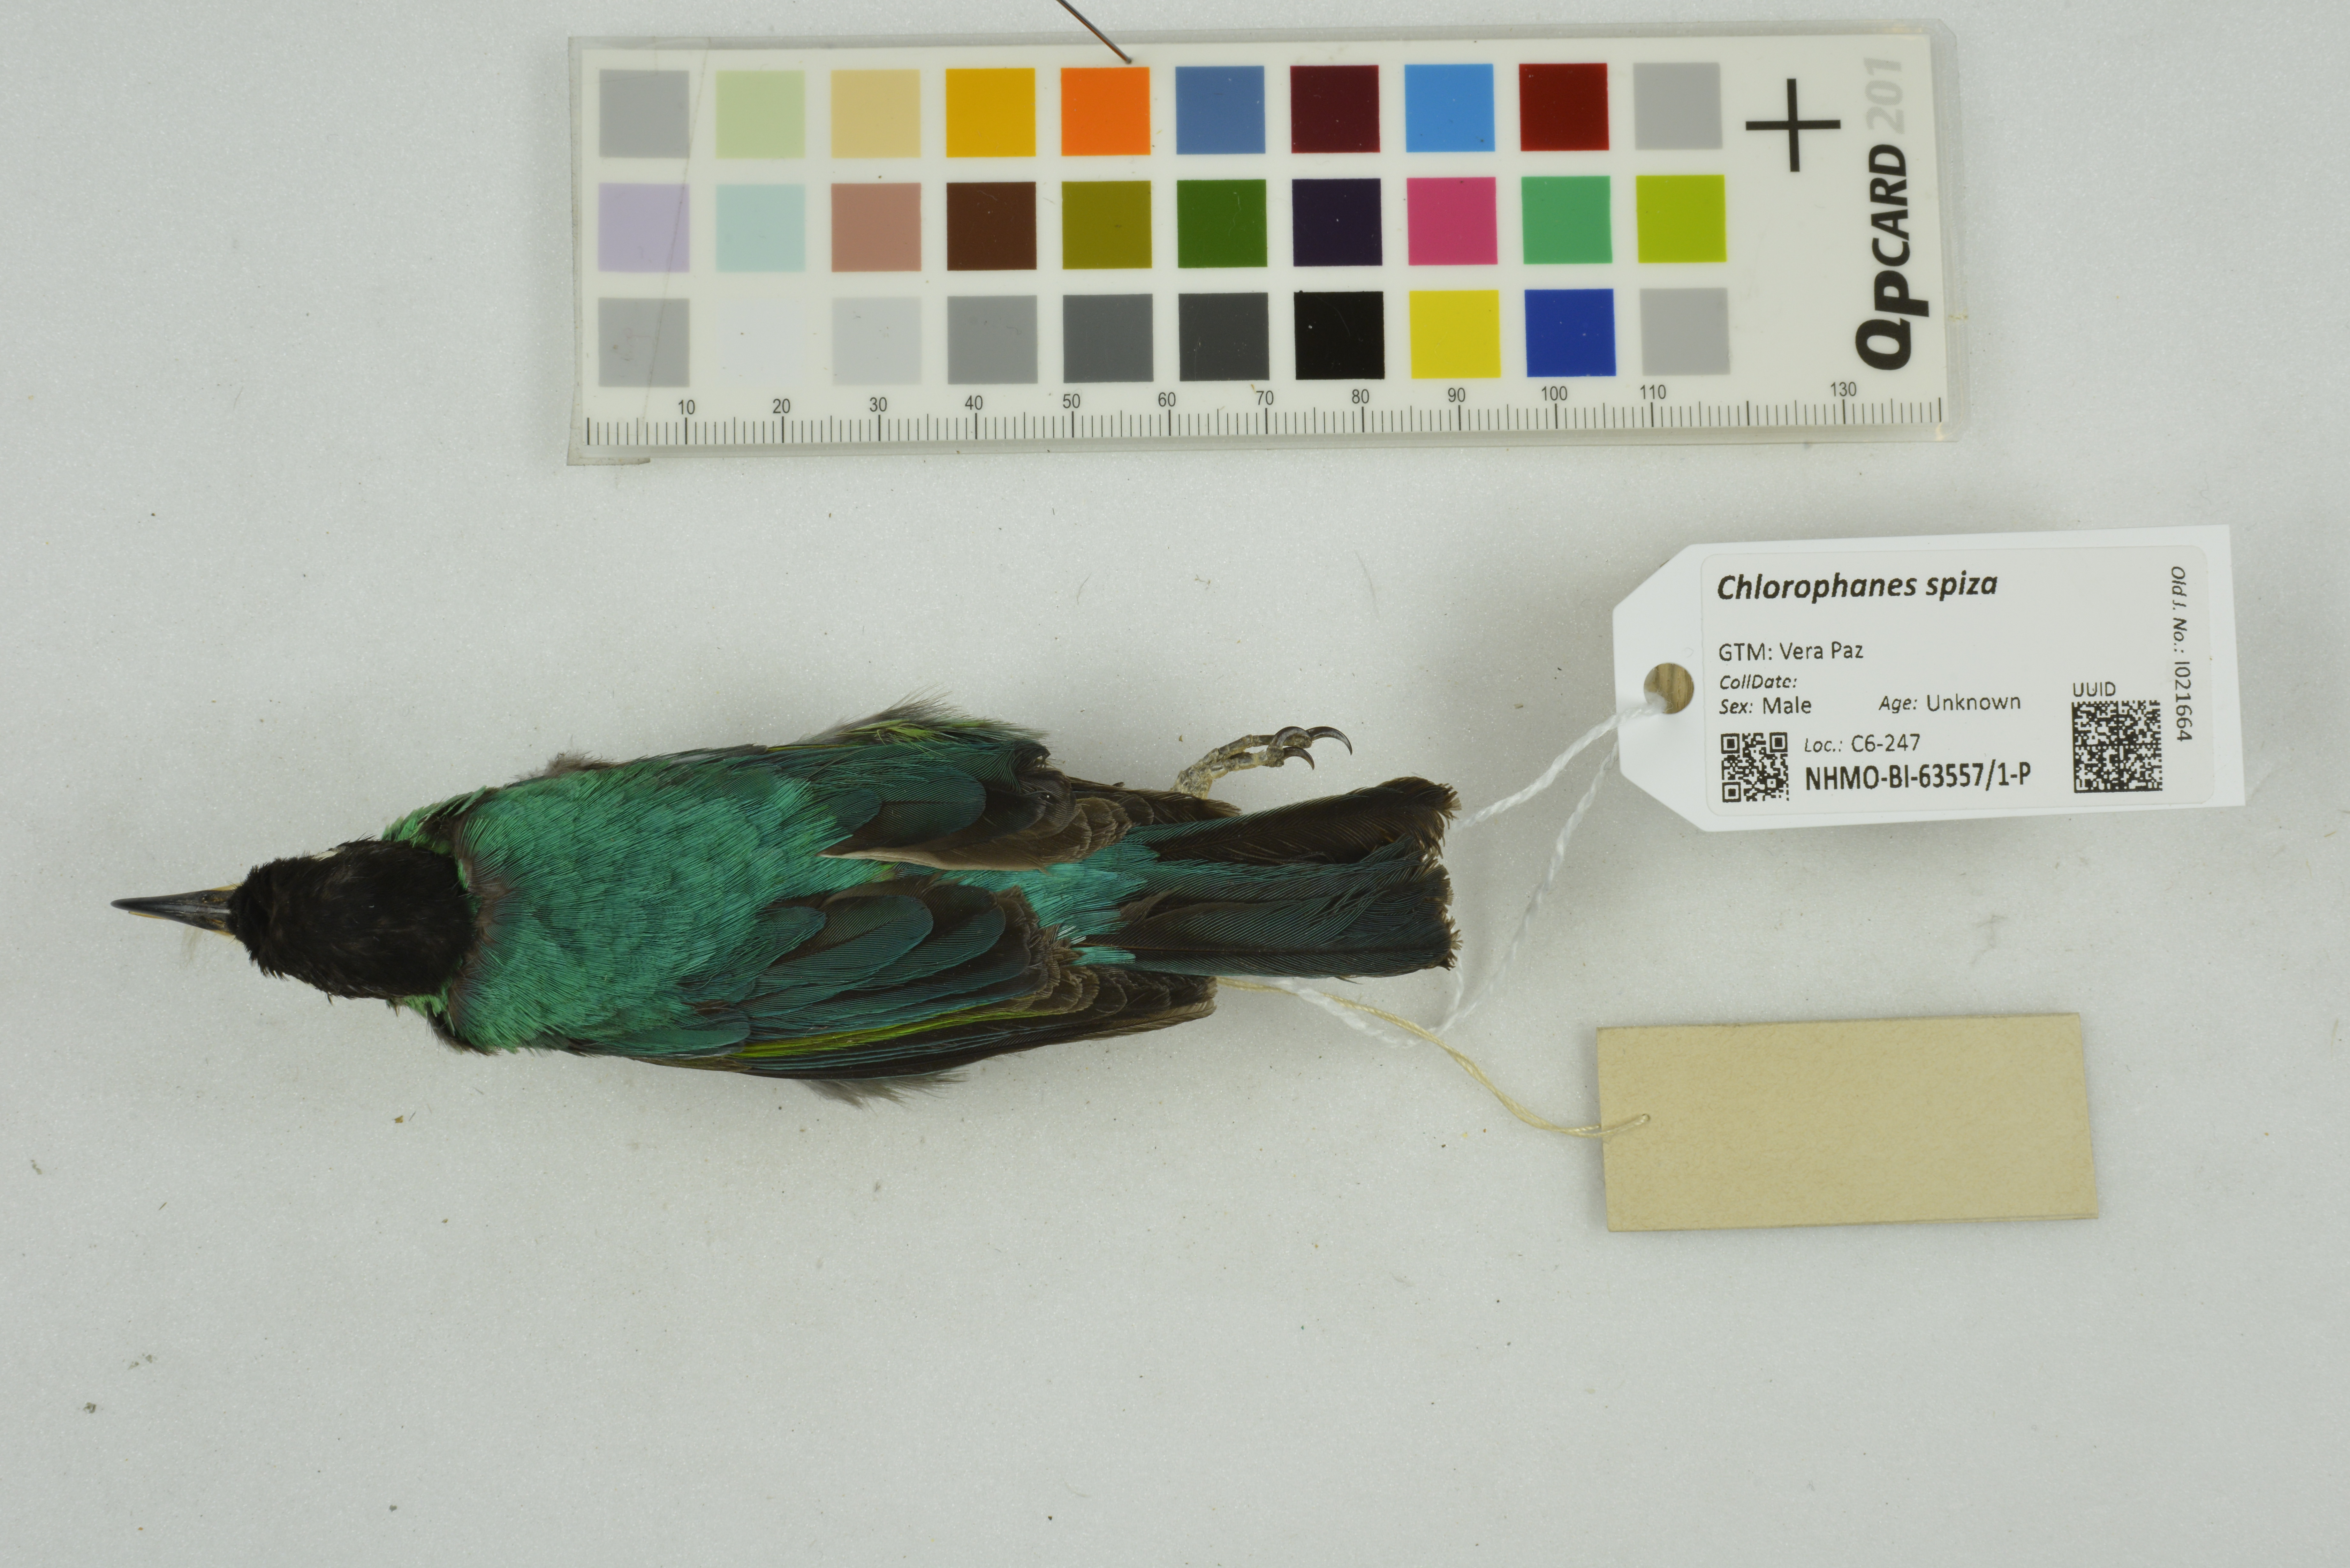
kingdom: Animalia
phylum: Chordata
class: Aves
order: Passeriformes
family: Thraupidae
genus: Chlorophanes
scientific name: Chlorophanes spiza
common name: Green honeycreeper
